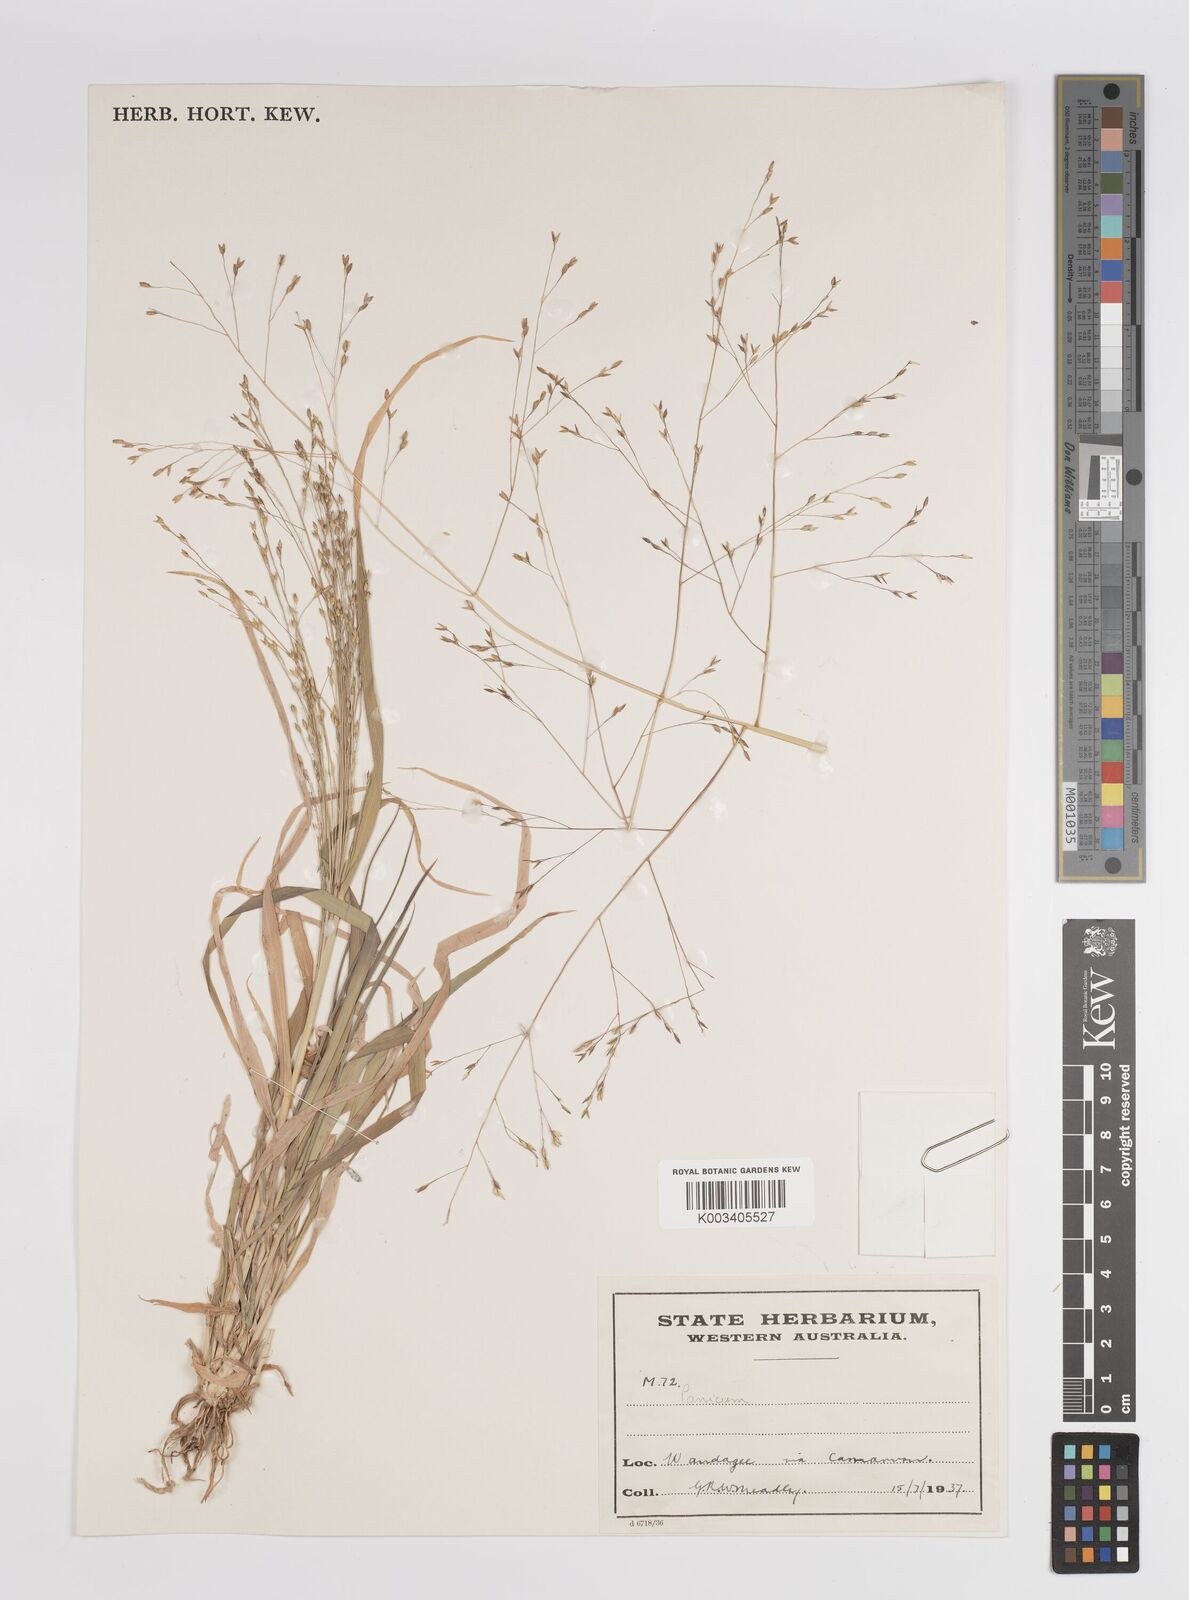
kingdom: Plantae
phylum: Tracheophyta
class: Liliopsida
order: Poales
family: Poaceae
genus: Panicum
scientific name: Panicum
